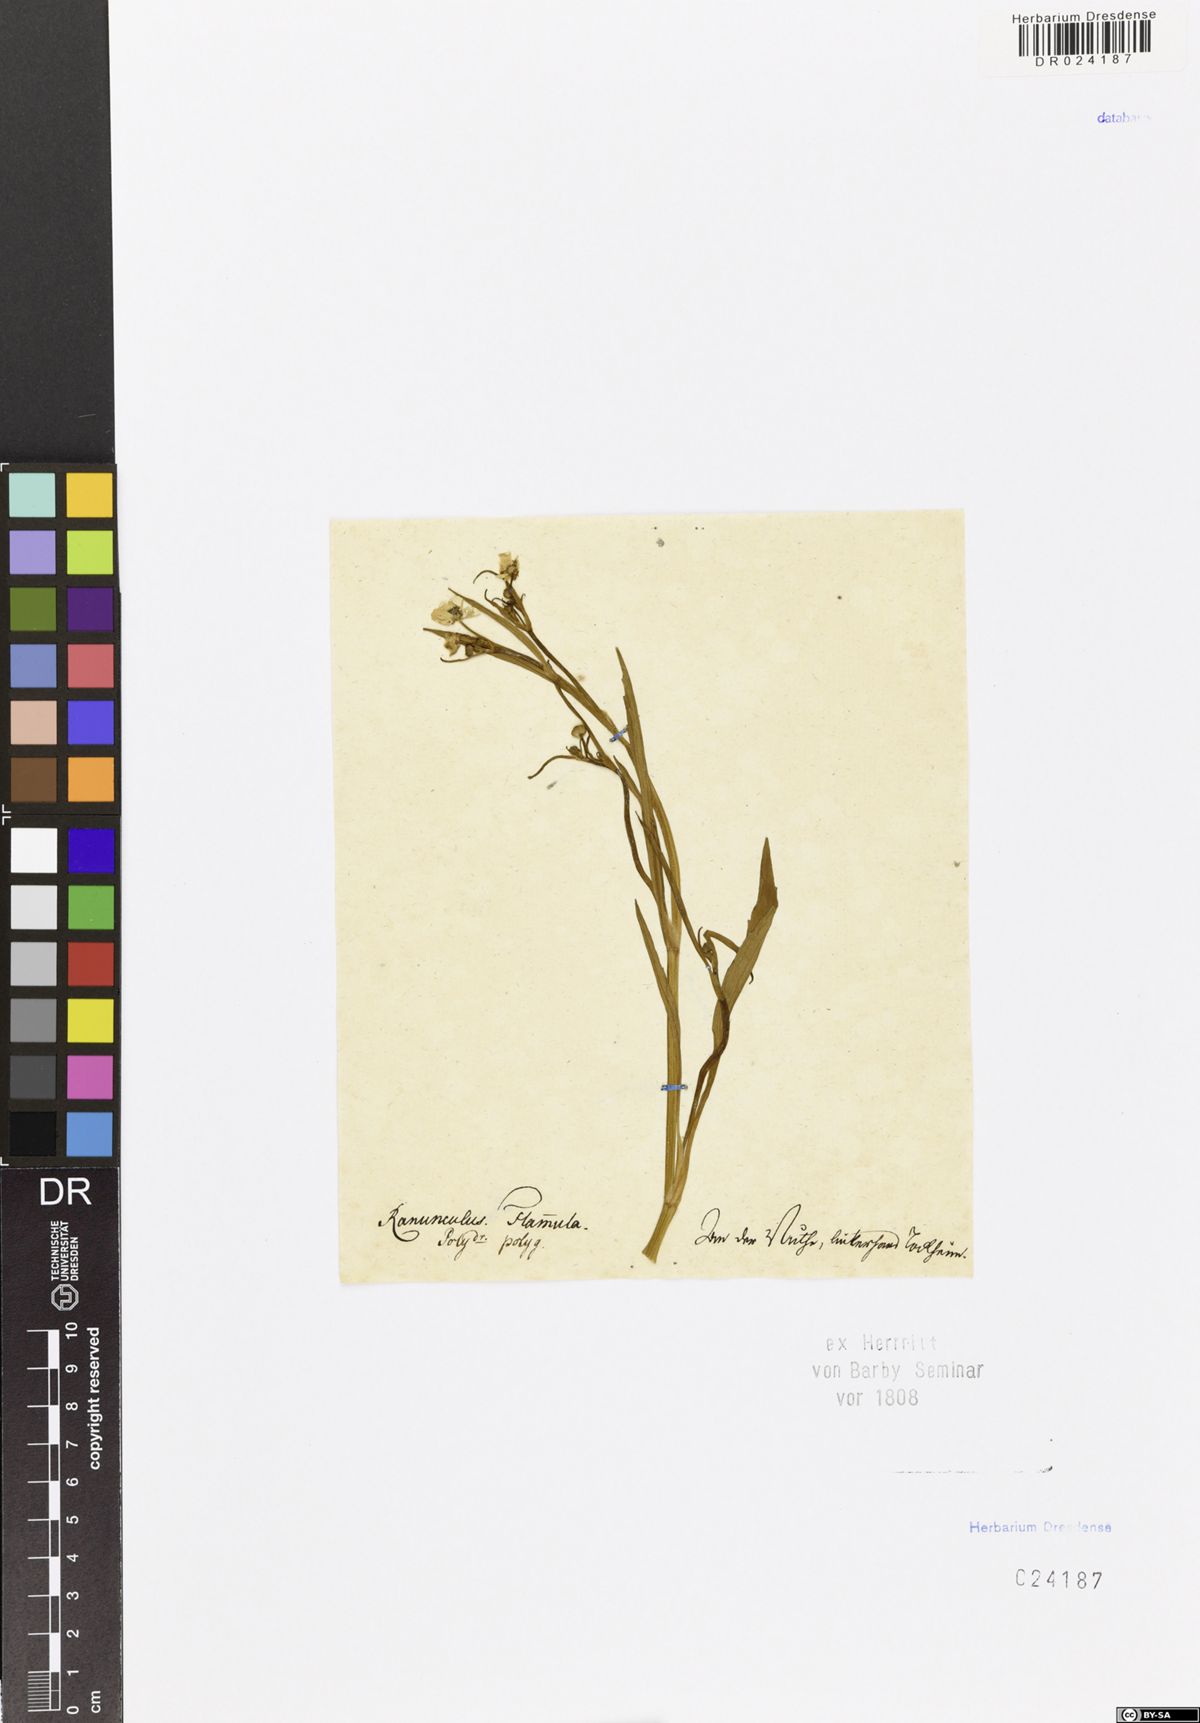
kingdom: Plantae
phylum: Tracheophyta
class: Magnoliopsida
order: Ranunculales
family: Ranunculaceae
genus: Ranunculus
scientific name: Ranunculus flammula
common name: Lesser spearwort
